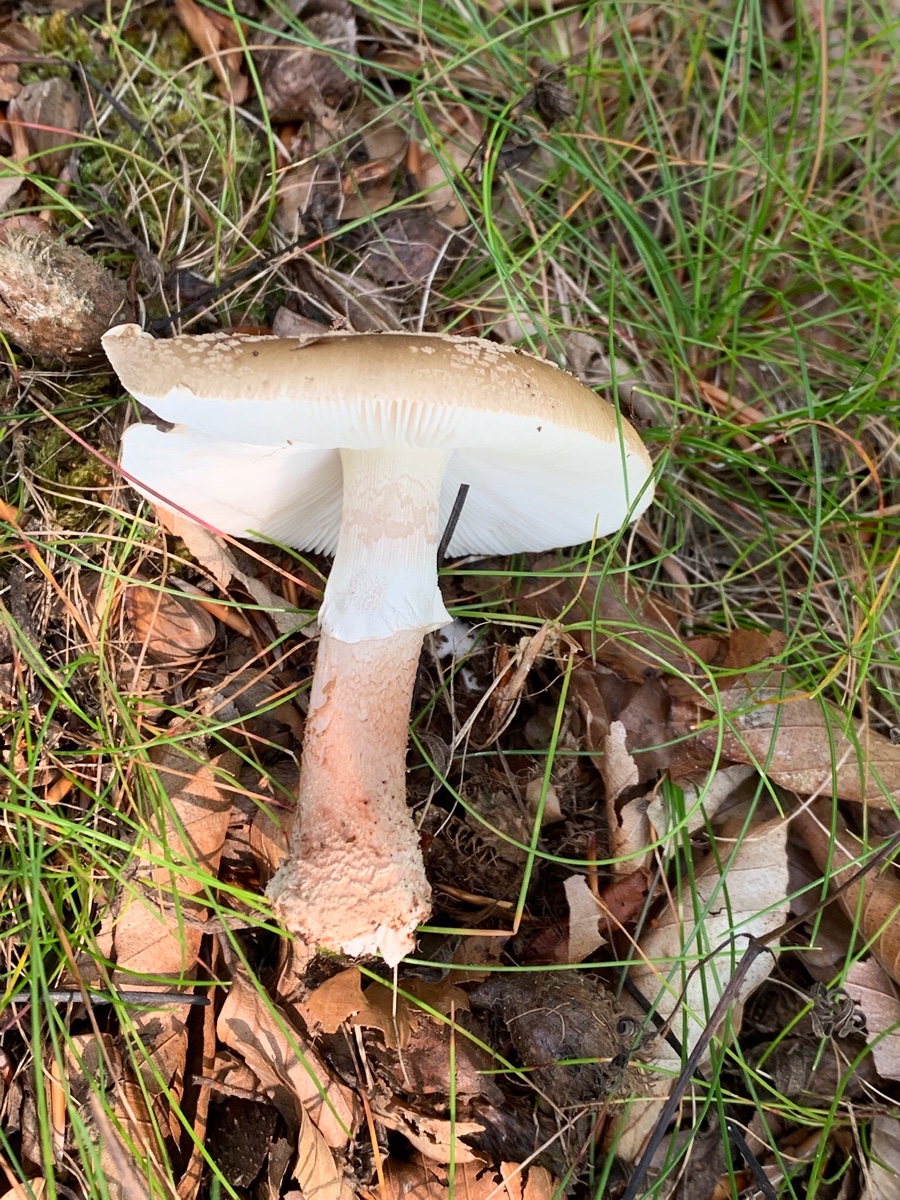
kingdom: Fungi
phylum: Basidiomycota
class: Agaricomycetes
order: Agaricales
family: Amanitaceae
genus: Amanita
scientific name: Amanita rubescens
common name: rødmende fluesvamp
